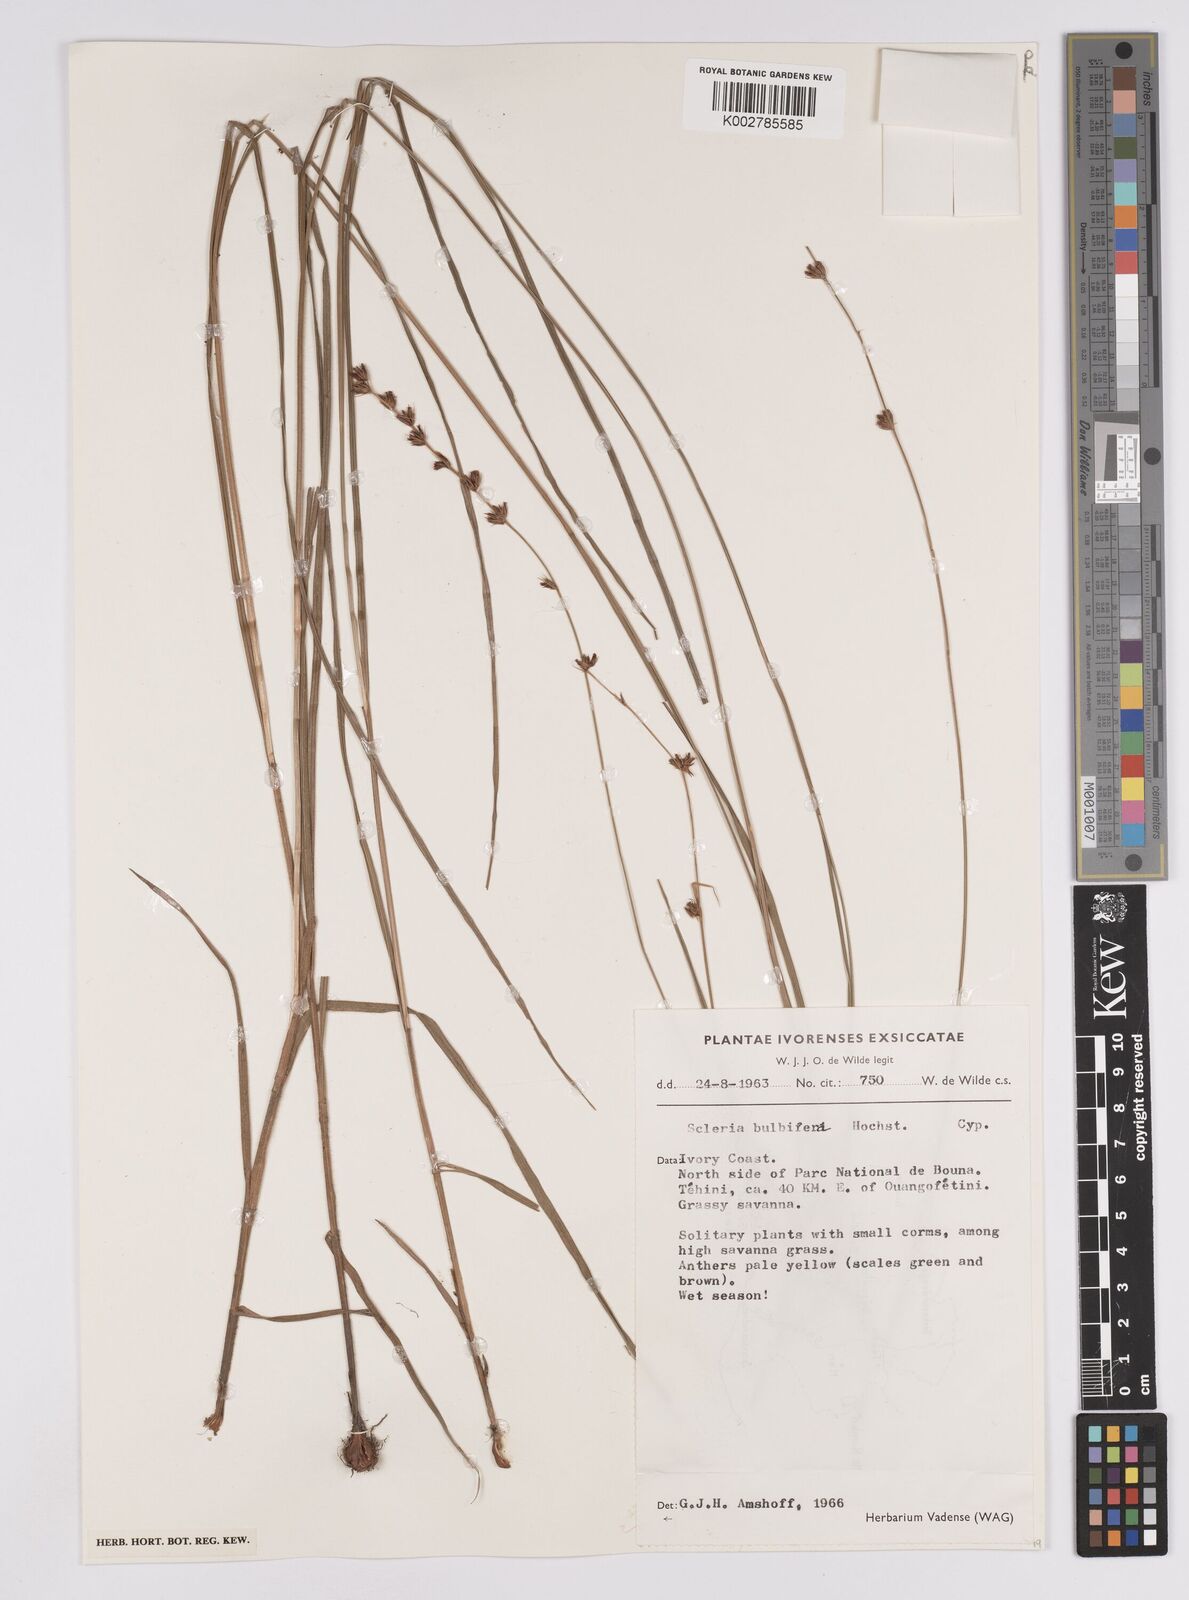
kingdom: Plantae
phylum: Tracheophyta
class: Liliopsida
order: Poales
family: Cyperaceae
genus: Scleria
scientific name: Scleria bulbifera
